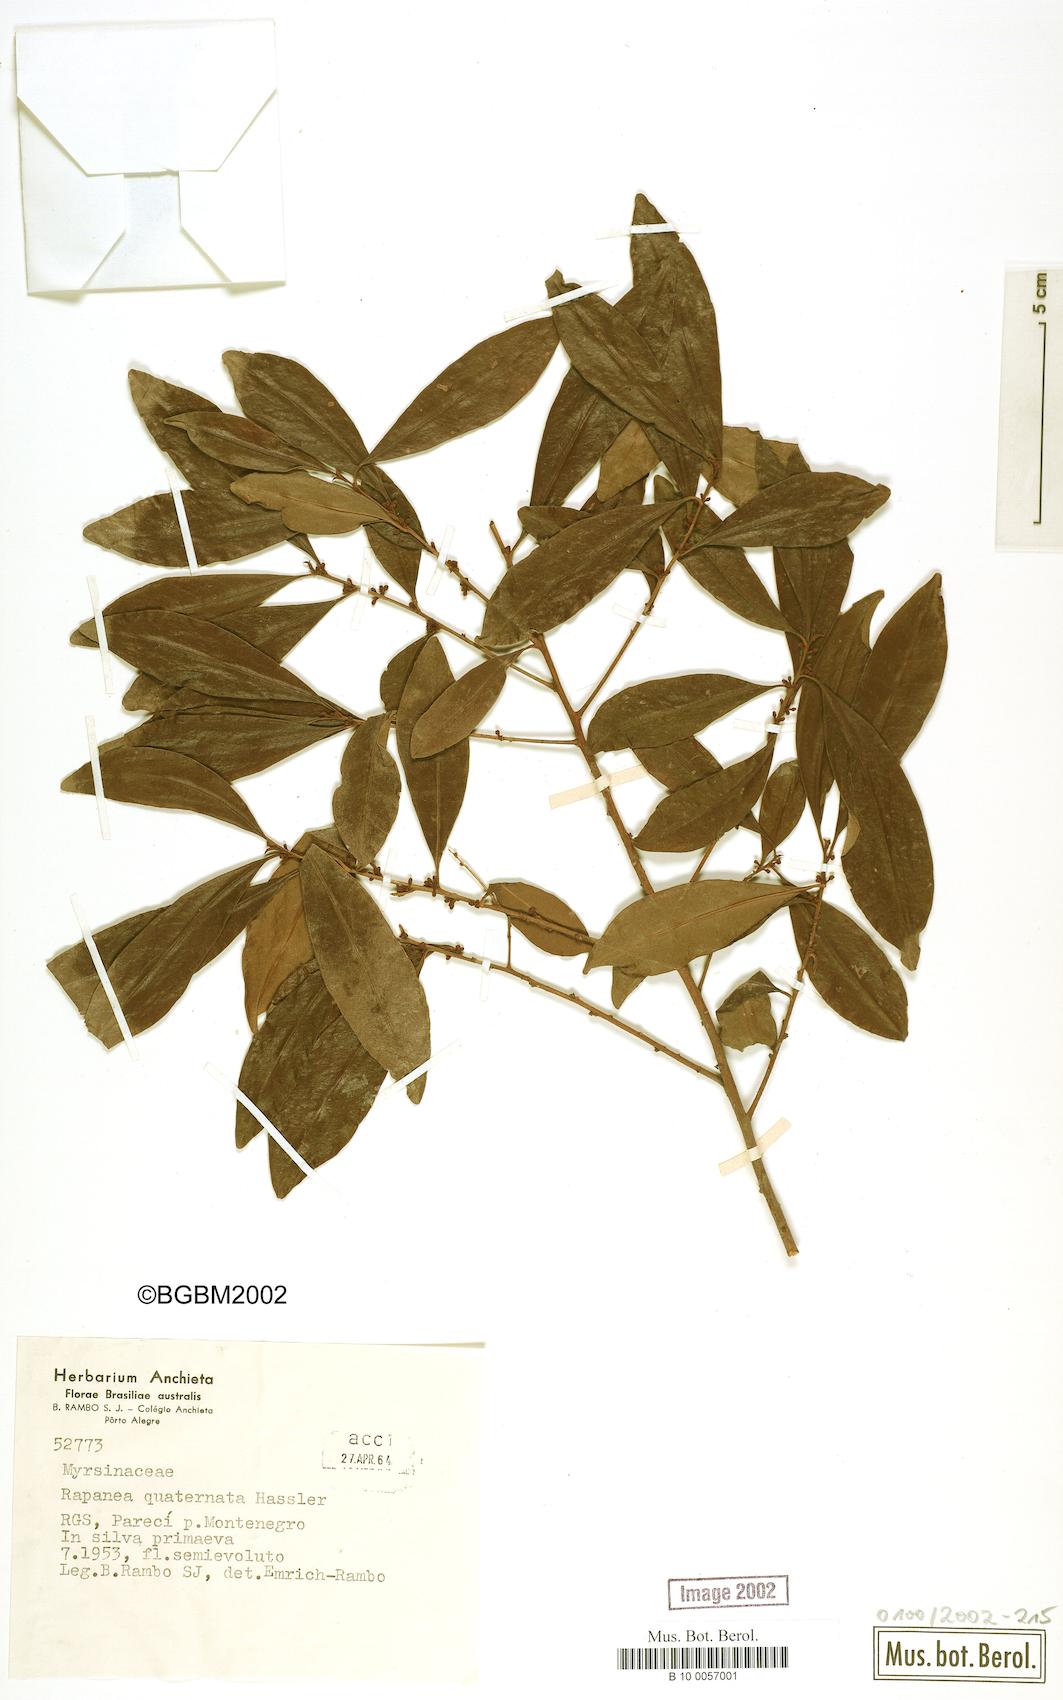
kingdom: Plantae
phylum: Tracheophyta
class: Magnoliopsida
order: Ericales
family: Primulaceae
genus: Myrsine
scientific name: Myrsine loefgrenii
